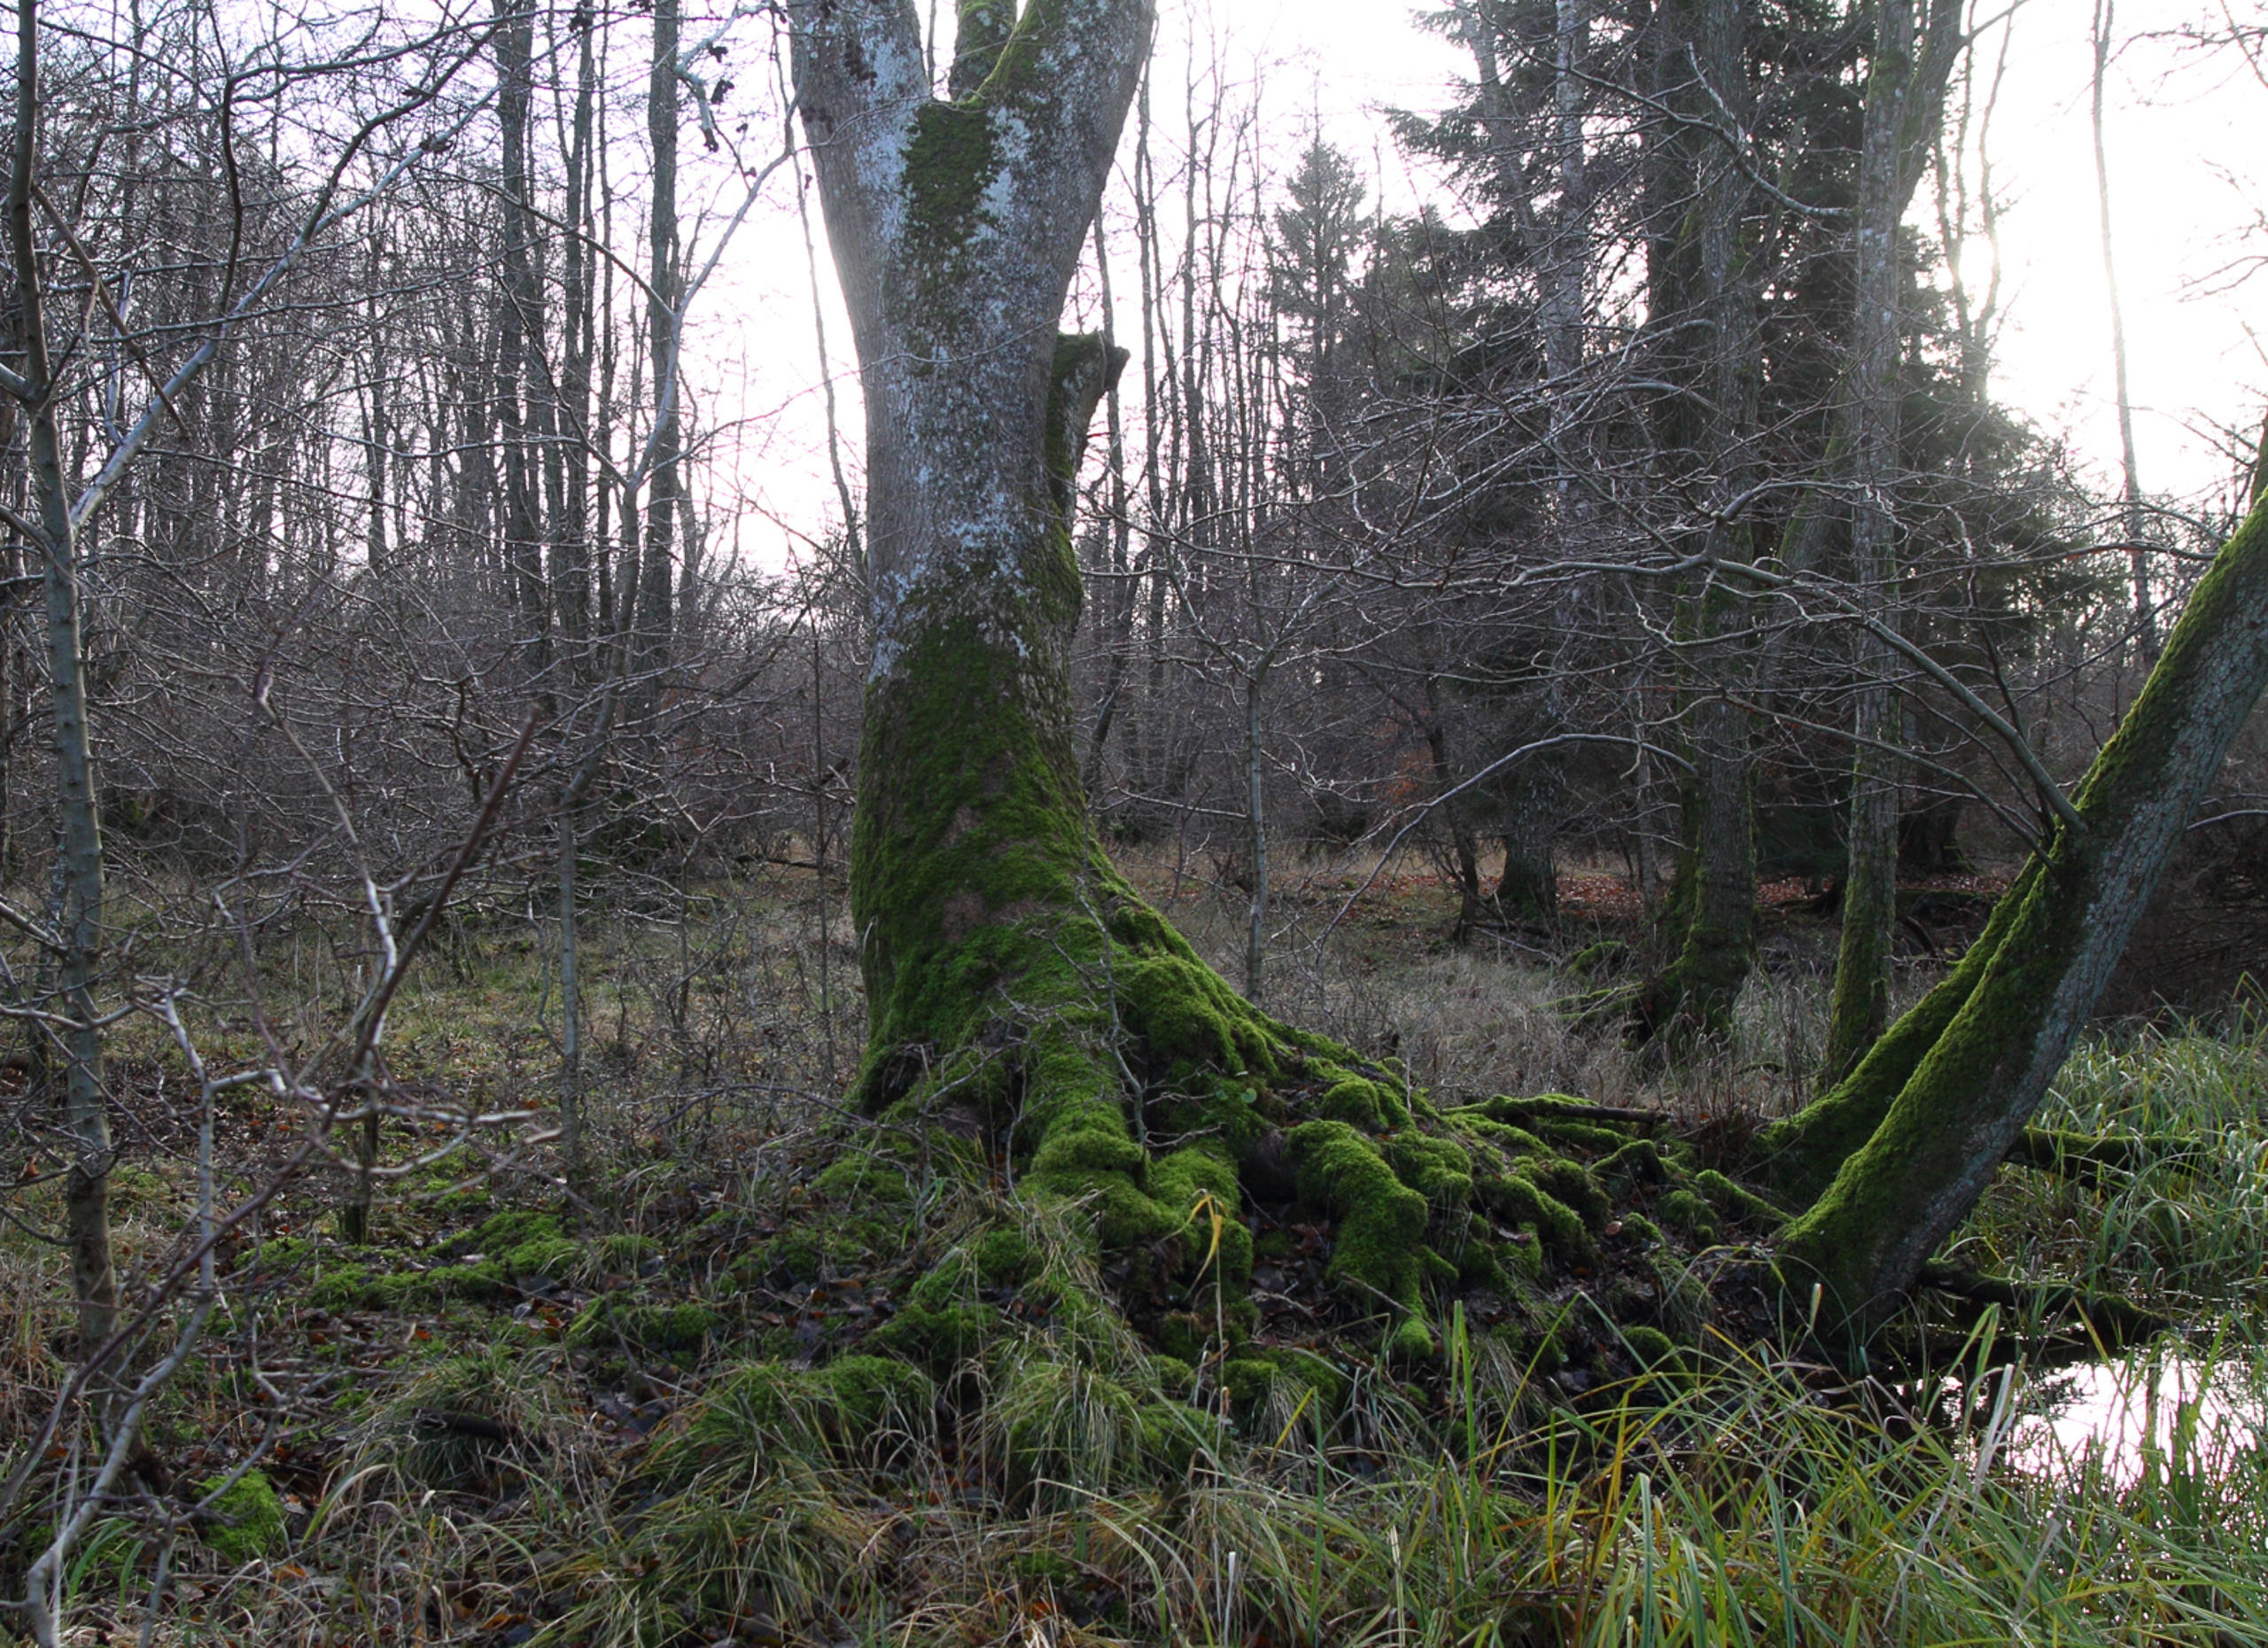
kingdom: Plantae
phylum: Tracheophyta
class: Magnoliopsida
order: Lamiales
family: Oleaceae
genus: Fraxinus
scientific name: Fraxinus excelsior
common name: Ask
